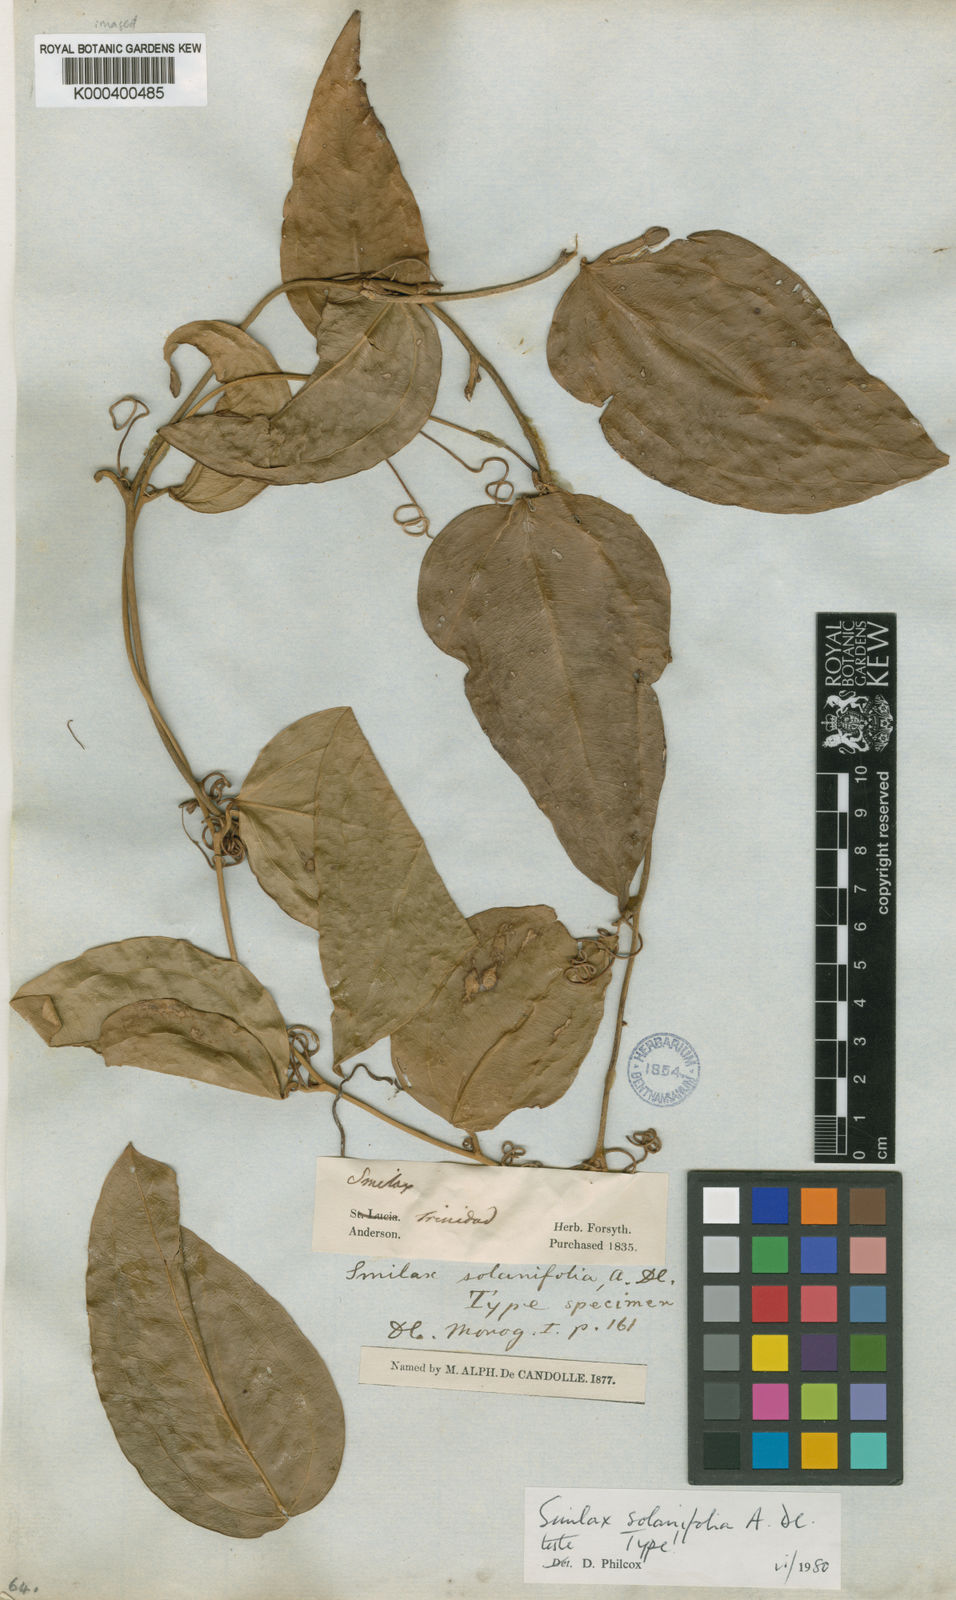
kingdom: Plantae
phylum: Tracheophyta
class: Liliopsida
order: Liliales
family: Smilacaceae
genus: Smilax
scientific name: Smilax solanifolia
